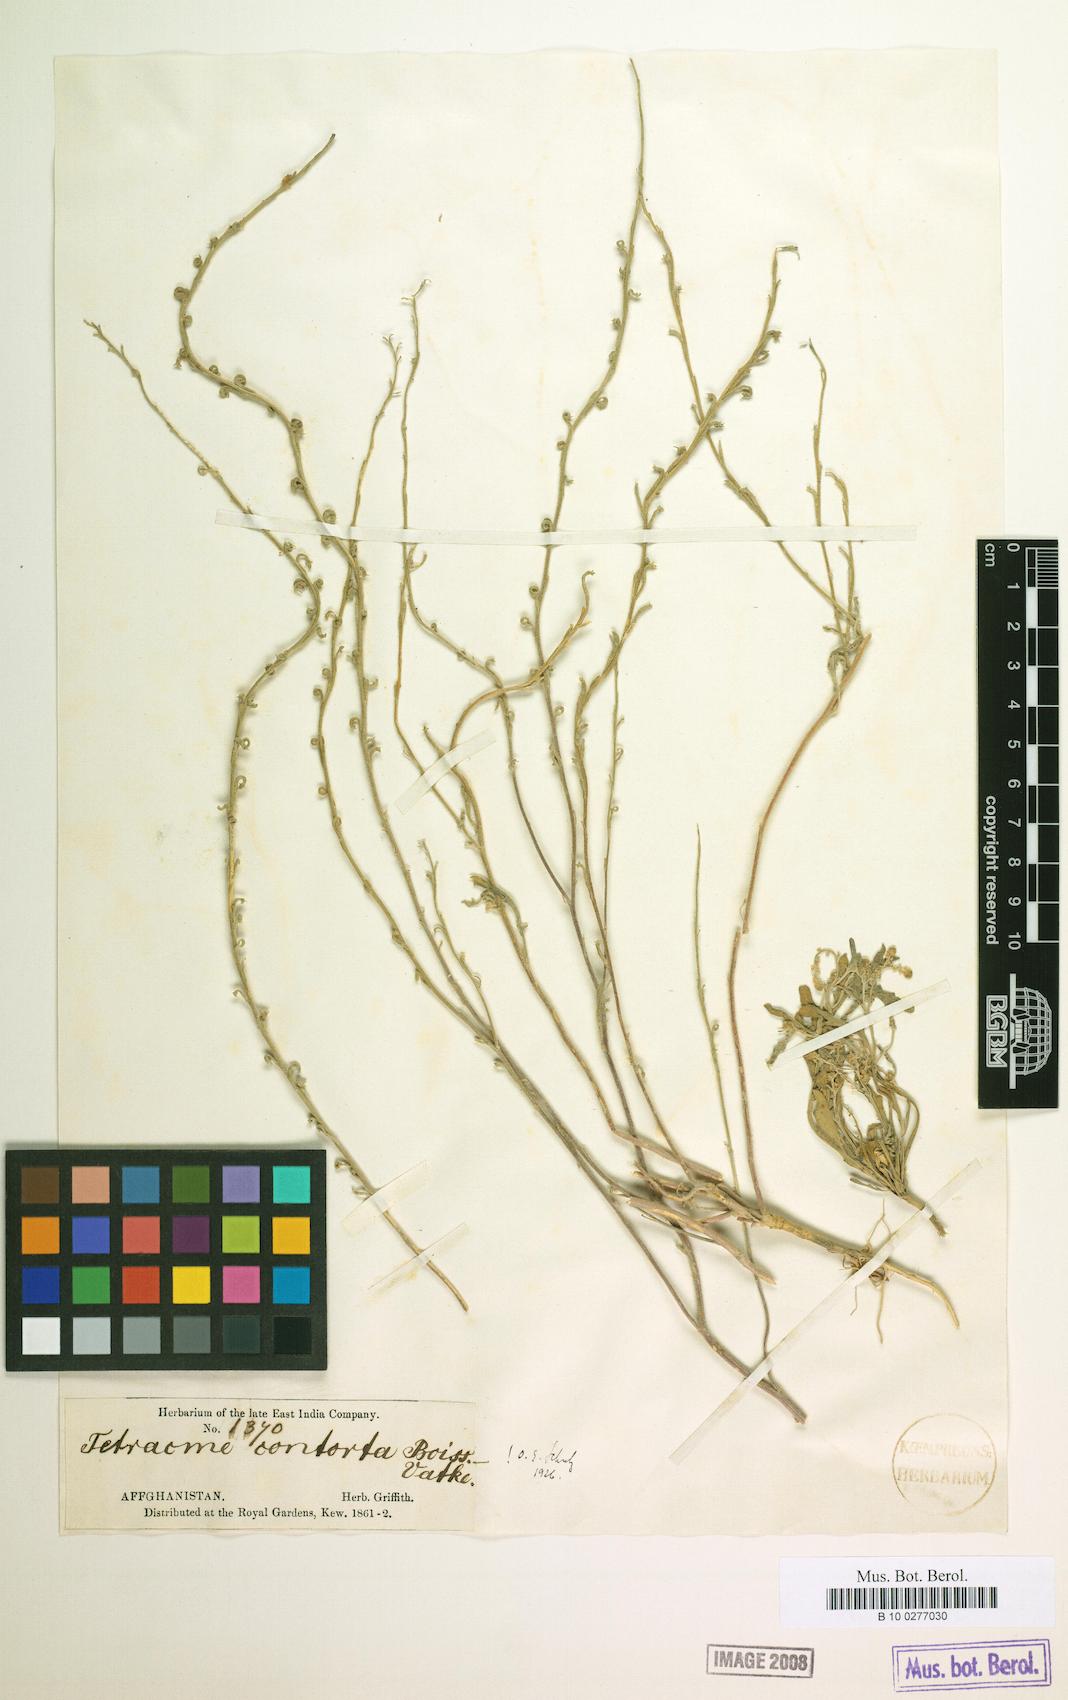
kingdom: Plantae
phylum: Tracheophyta
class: Magnoliopsida
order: Brassicales
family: Brassicaceae
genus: Tetracme
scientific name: Tetracme contorta
